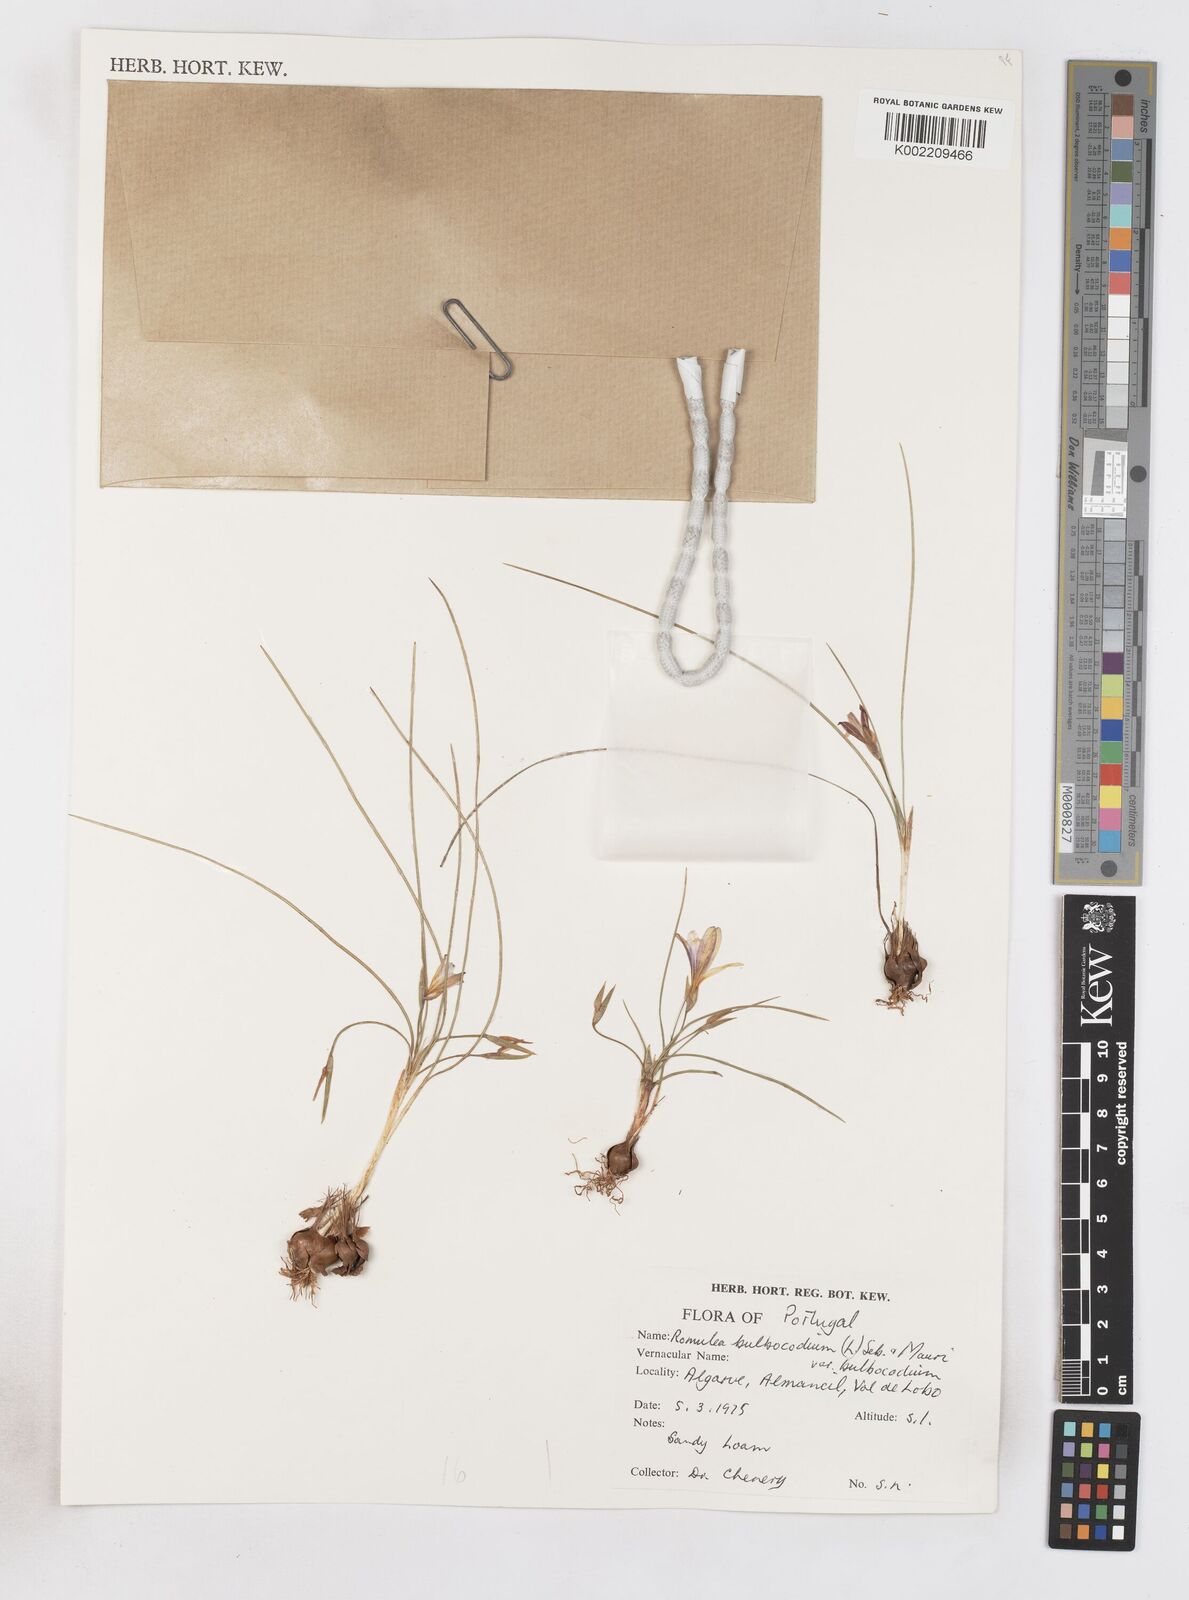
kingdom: Plantae
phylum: Tracheophyta
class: Liliopsida
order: Asparagales
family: Iridaceae
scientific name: Iridaceae
